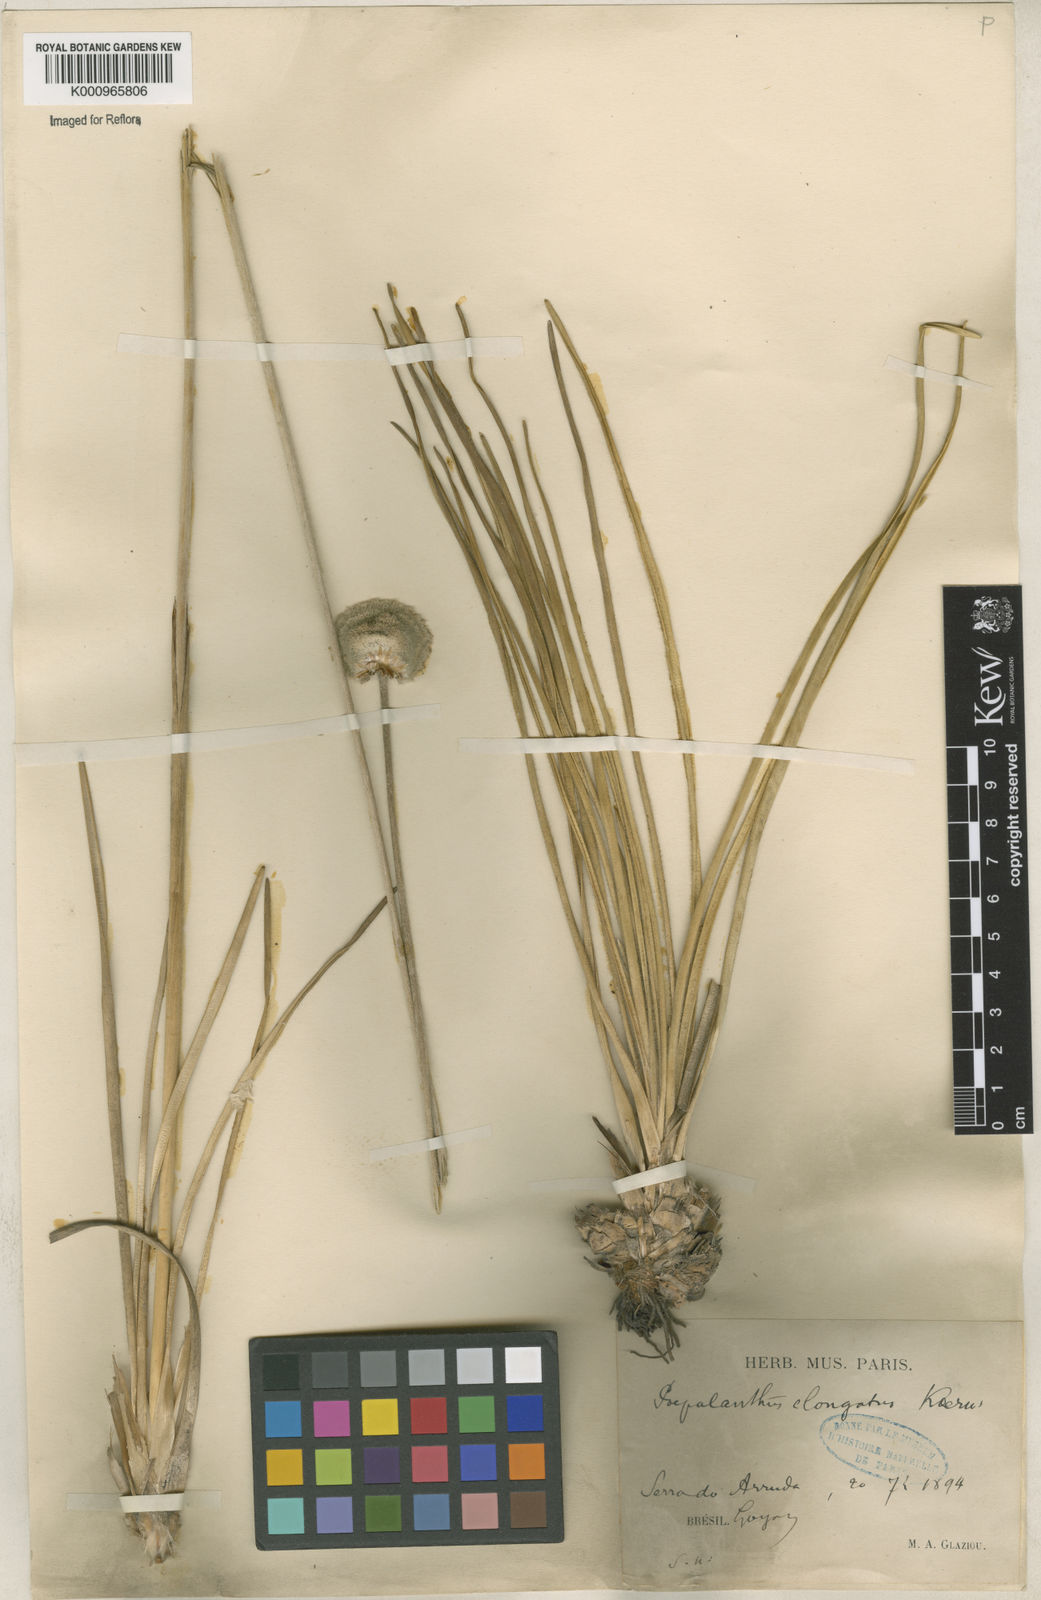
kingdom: Plantae
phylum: Tracheophyta
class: Liliopsida
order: Poales
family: Eriocaulaceae
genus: Paepalanthus
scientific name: Paepalanthus
